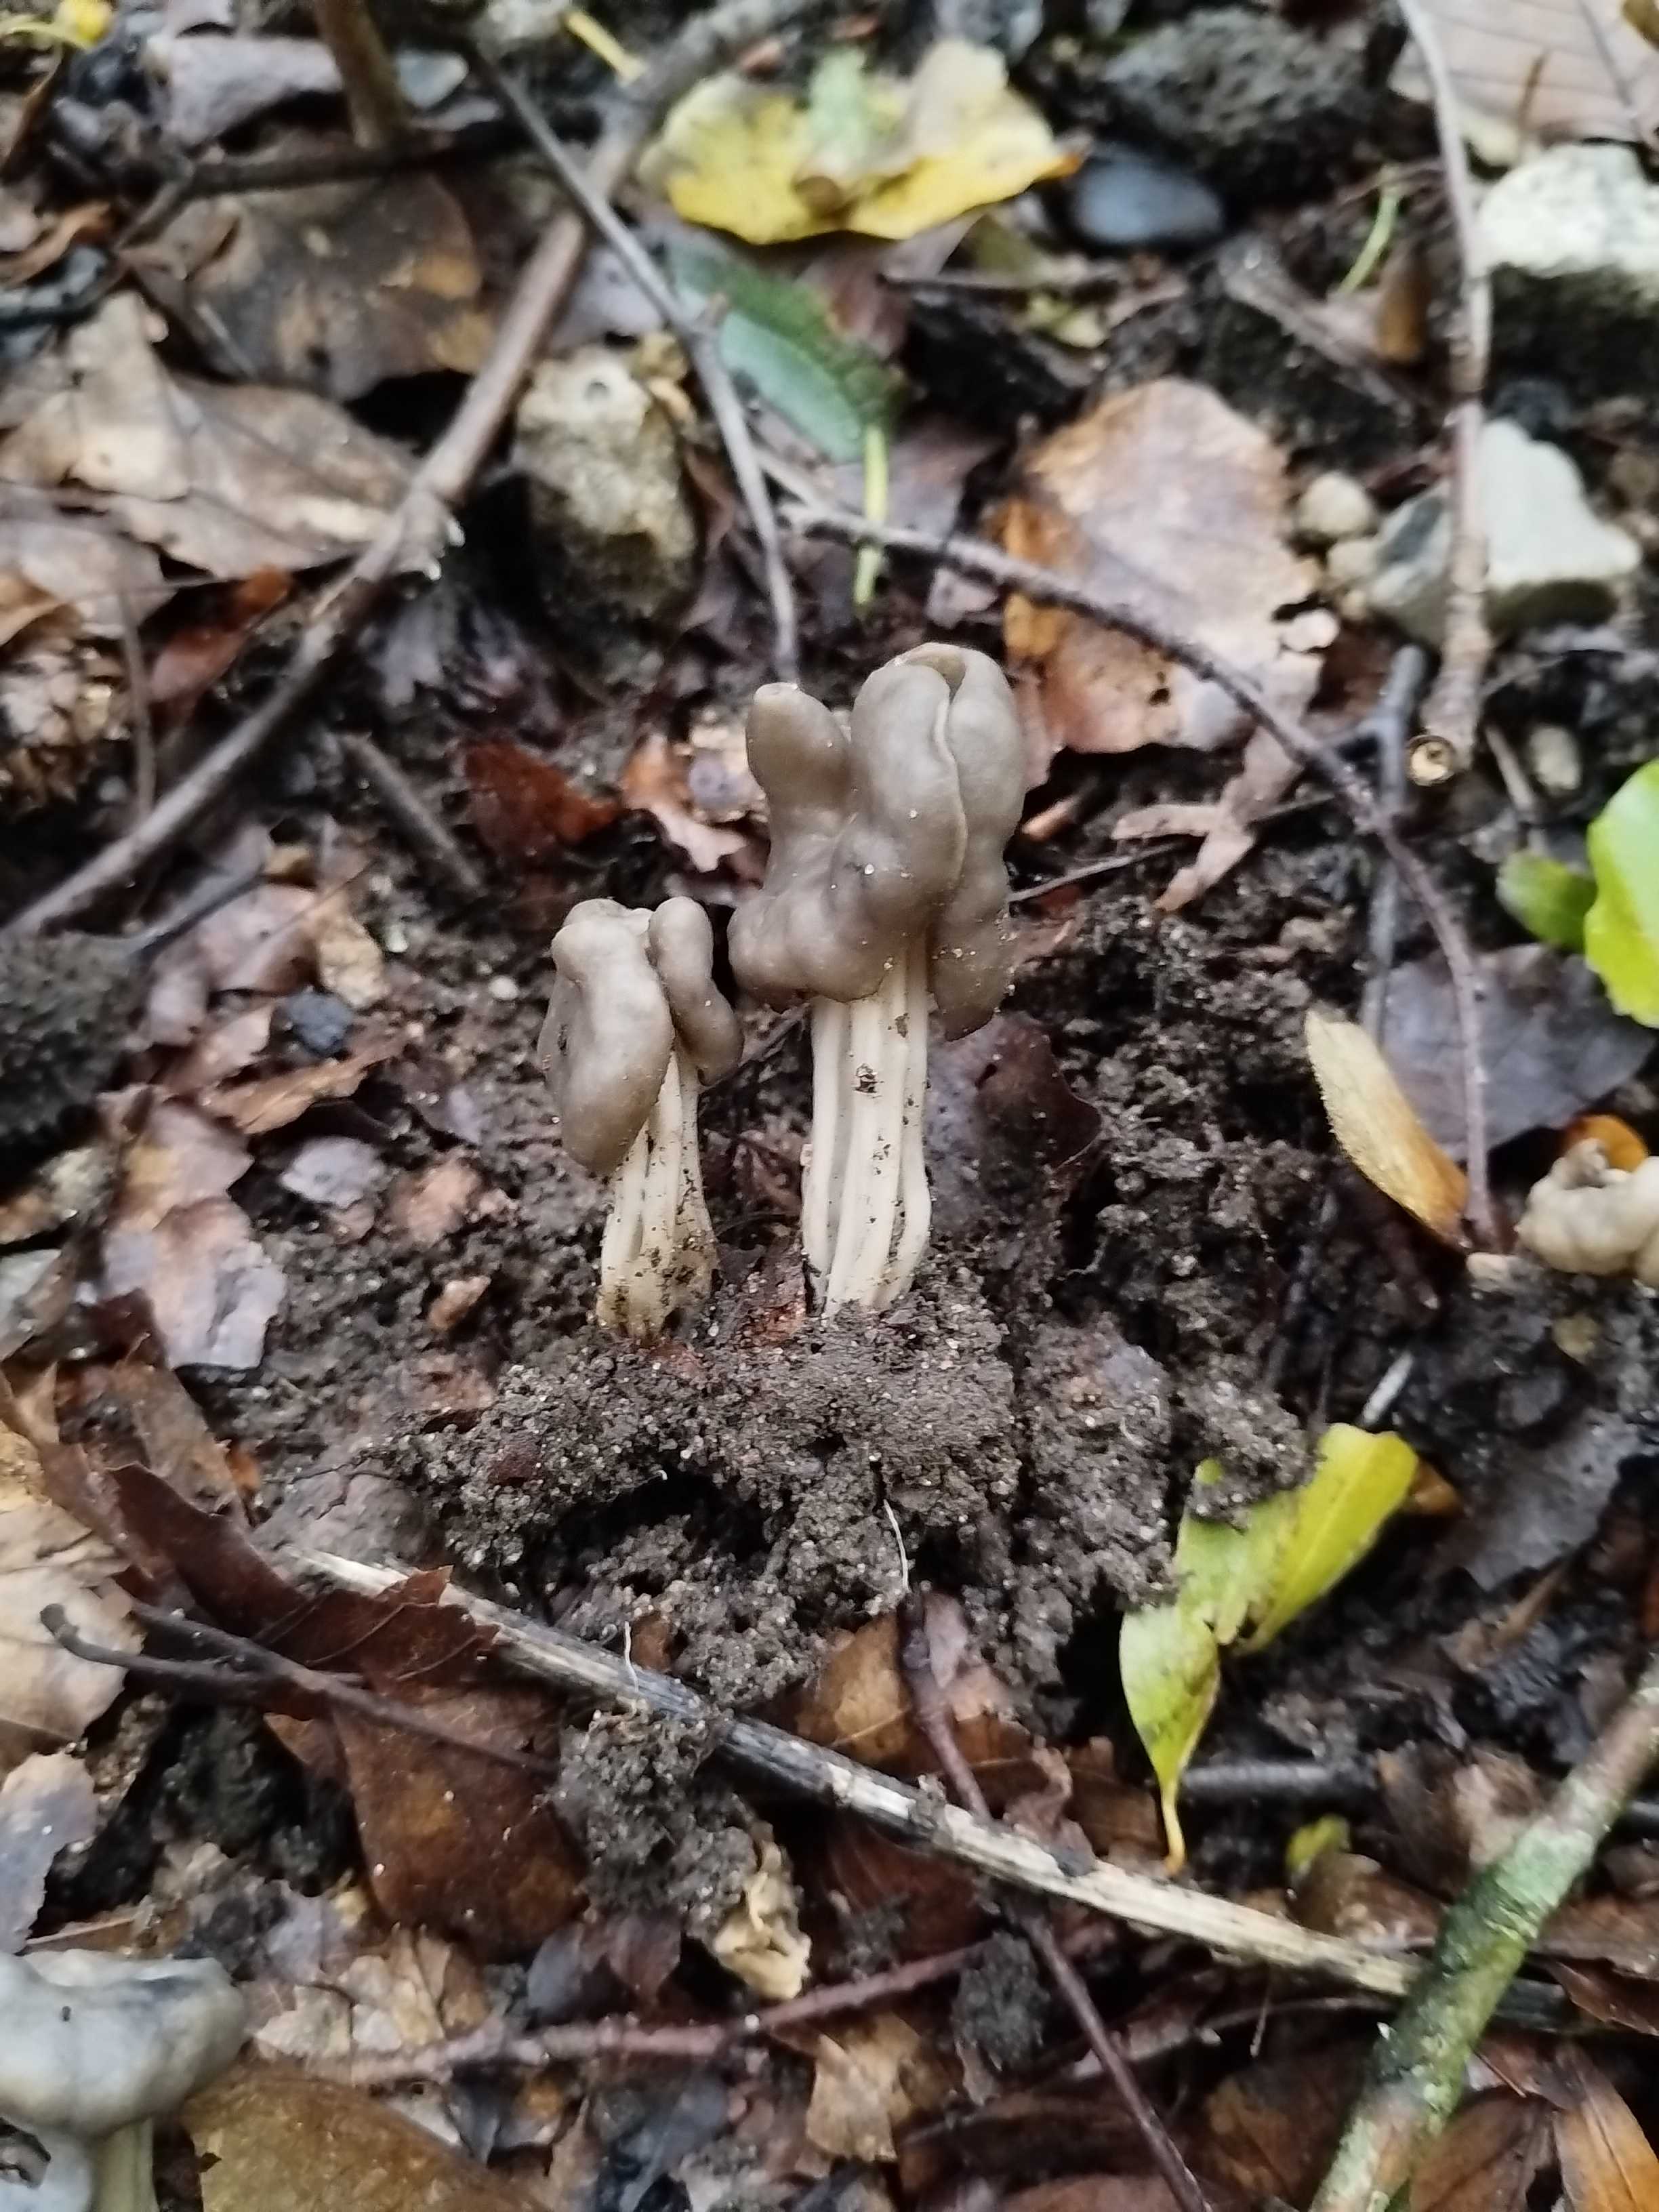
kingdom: Fungi
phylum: Ascomycota
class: Pezizomycetes
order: Pezizales
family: Helvellaceae
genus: Helvella
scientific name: Helvella lacunosa
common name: grubet foldhat
